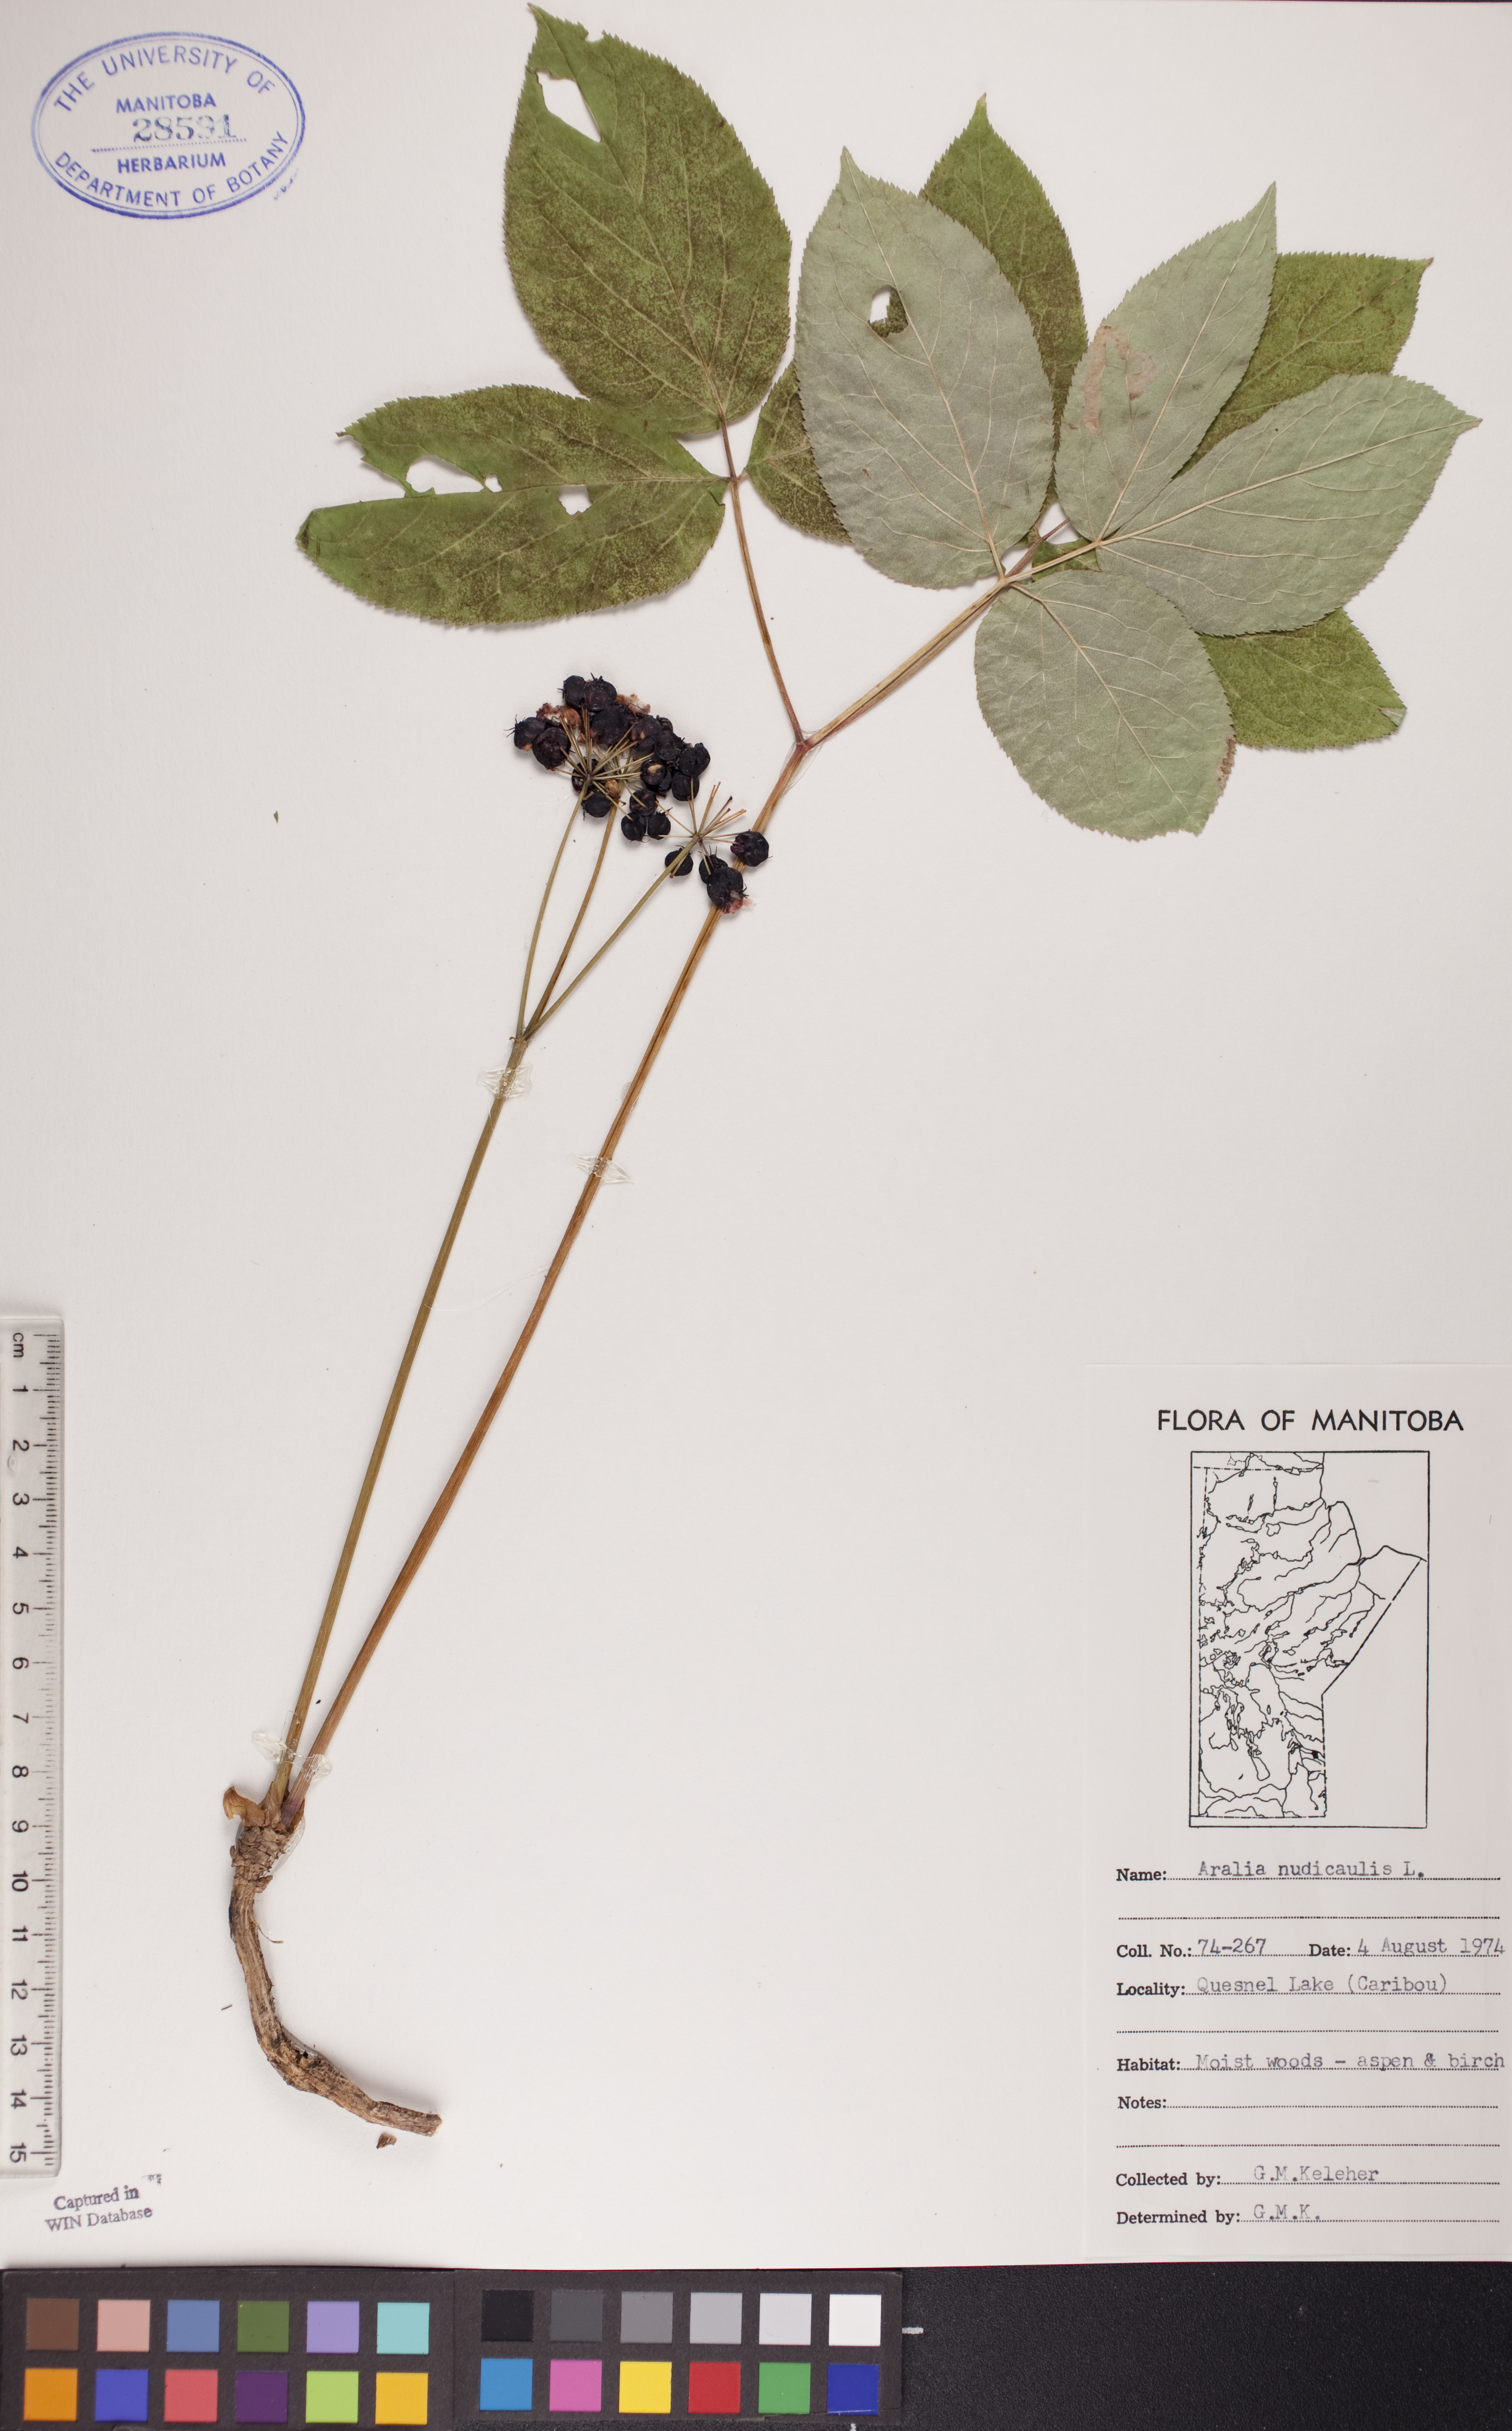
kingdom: Plantae
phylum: Tracheophyta
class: Magnoliopsida
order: Apiales
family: Araliaceae
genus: Aralia
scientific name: Aralia nudicaulis
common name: Wild sarsaparilla
